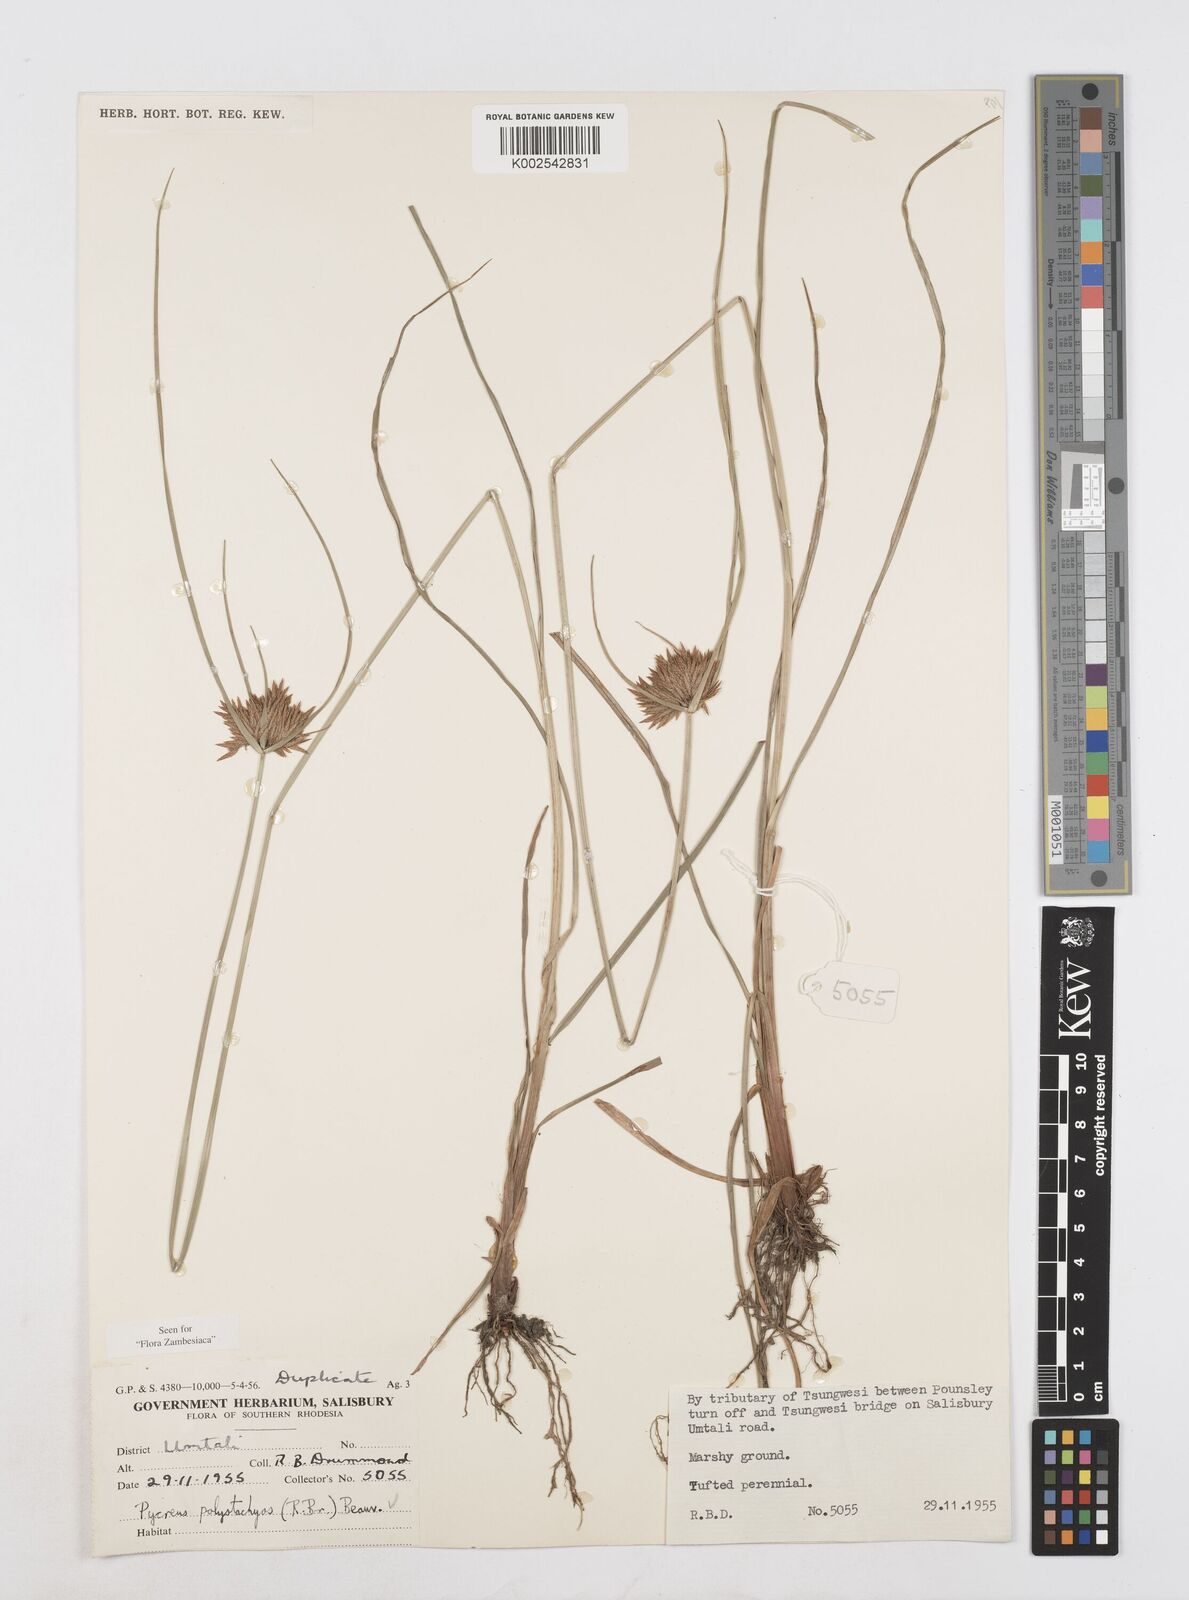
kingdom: Plantae
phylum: Tracheophyta
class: Liliopsida
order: Poales
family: Cyperaceae
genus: Cyperus
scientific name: Cyperus polystachyos
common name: Bunchy flat sedge
